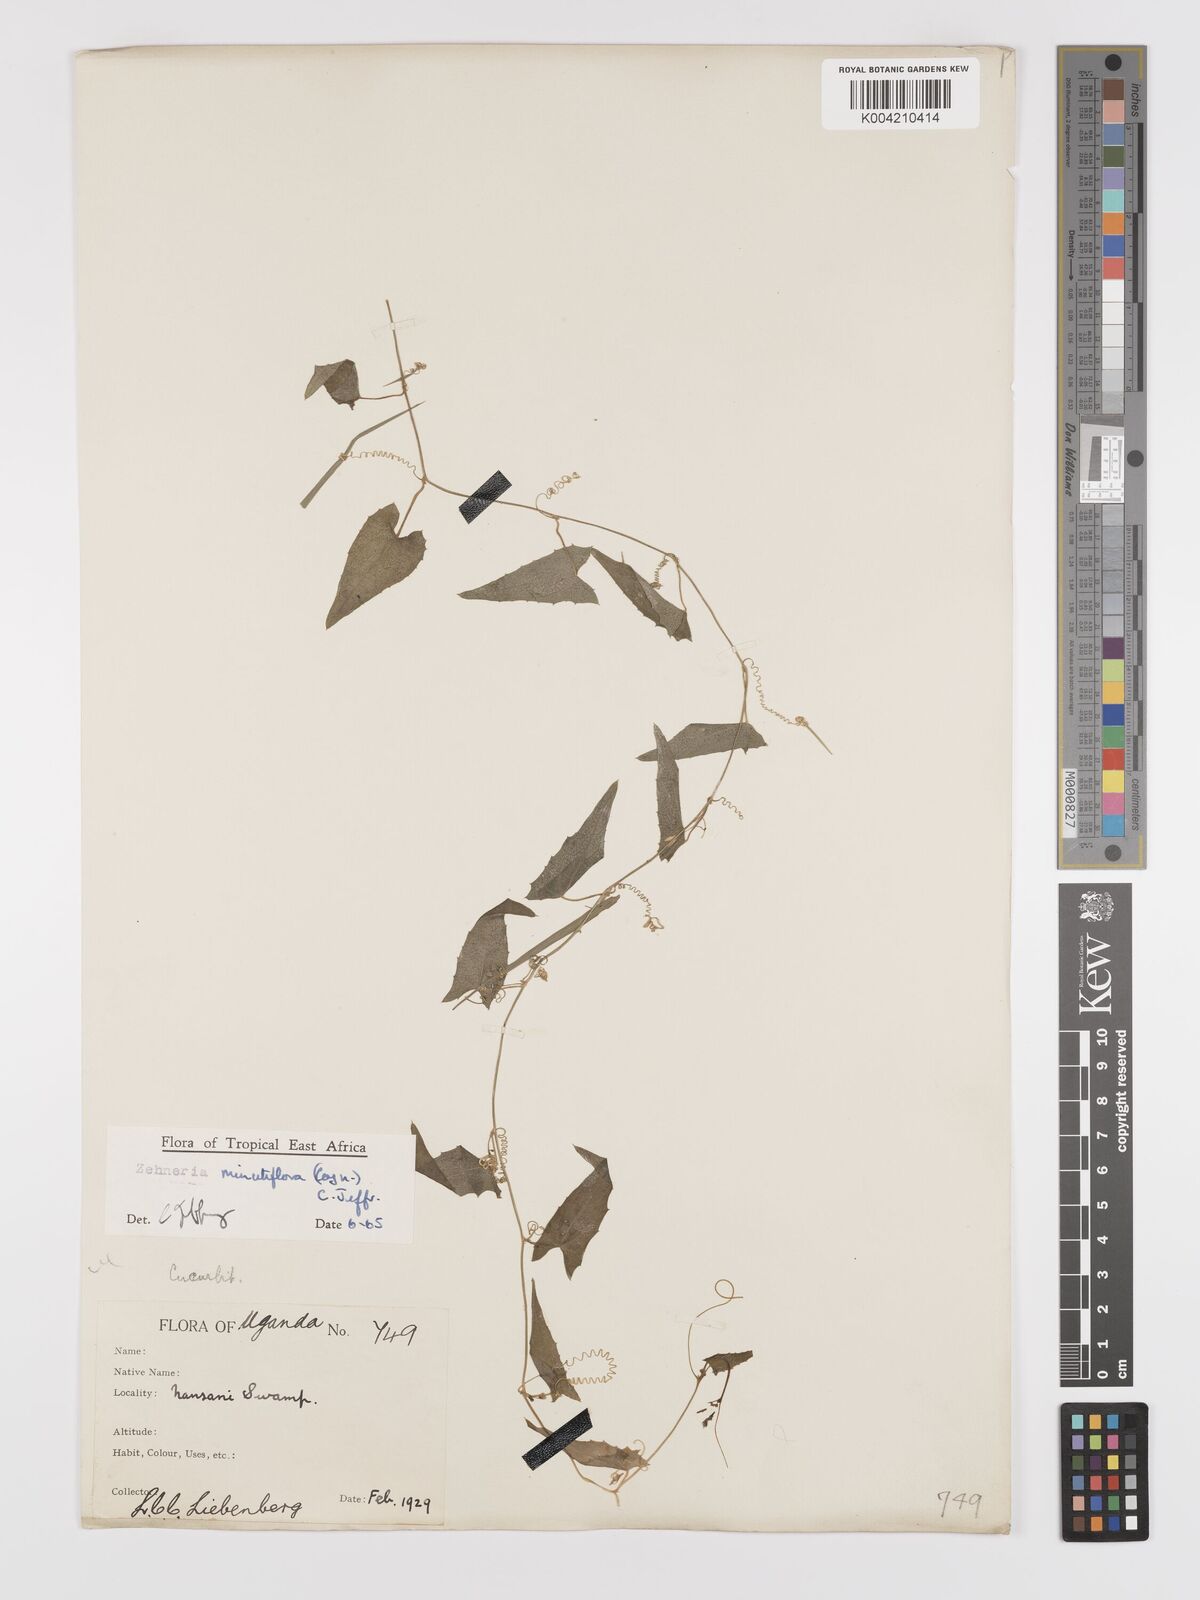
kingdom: Plantae
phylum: Tracheophyta
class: Magnoliopsida
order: Cucurbitales
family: Cucurbitaceae
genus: Zehneria
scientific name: Zehneria minutiflora
